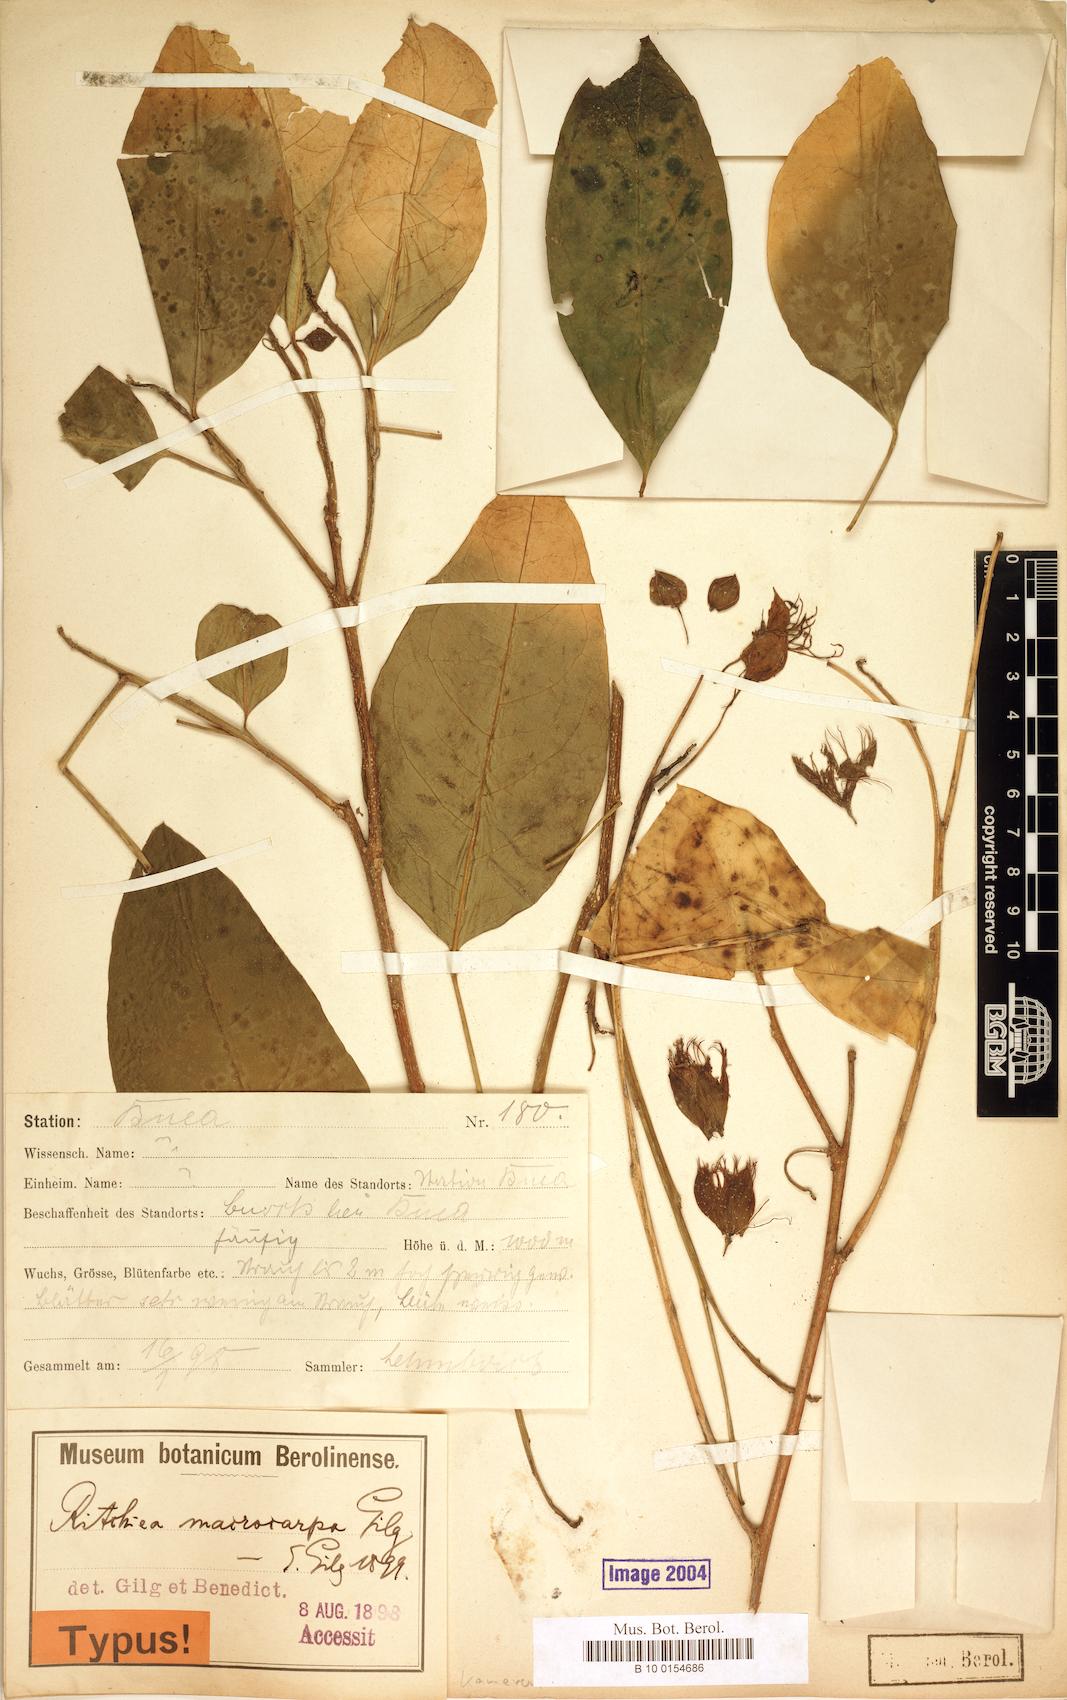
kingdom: Plantae
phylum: Tracheophyta
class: Magnoliopsida
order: Brassicales
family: Capparaceae
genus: Ritchiea
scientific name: Ritchiea albersii
